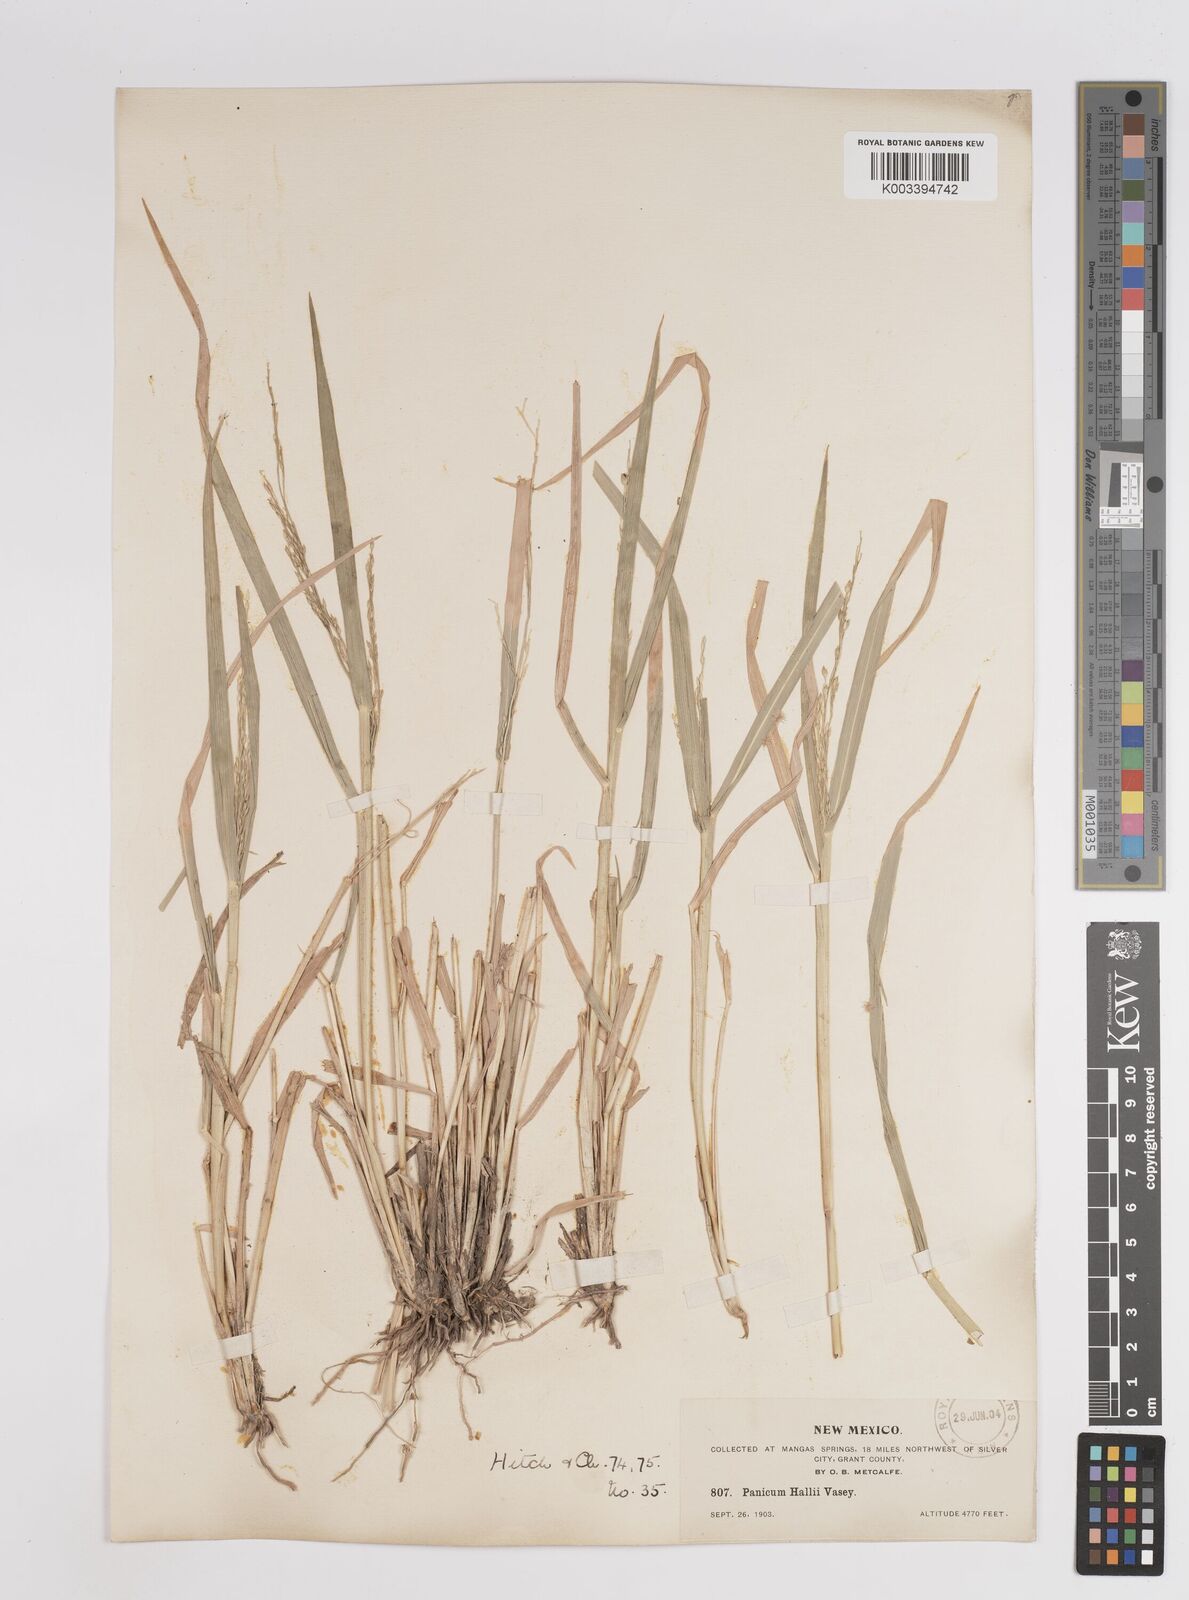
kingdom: Plantae
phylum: Tracheophyta
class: Liliopsida
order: Poales
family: Poaceae
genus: Panicum
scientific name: Panicum hallii
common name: Hall's witchgrass
